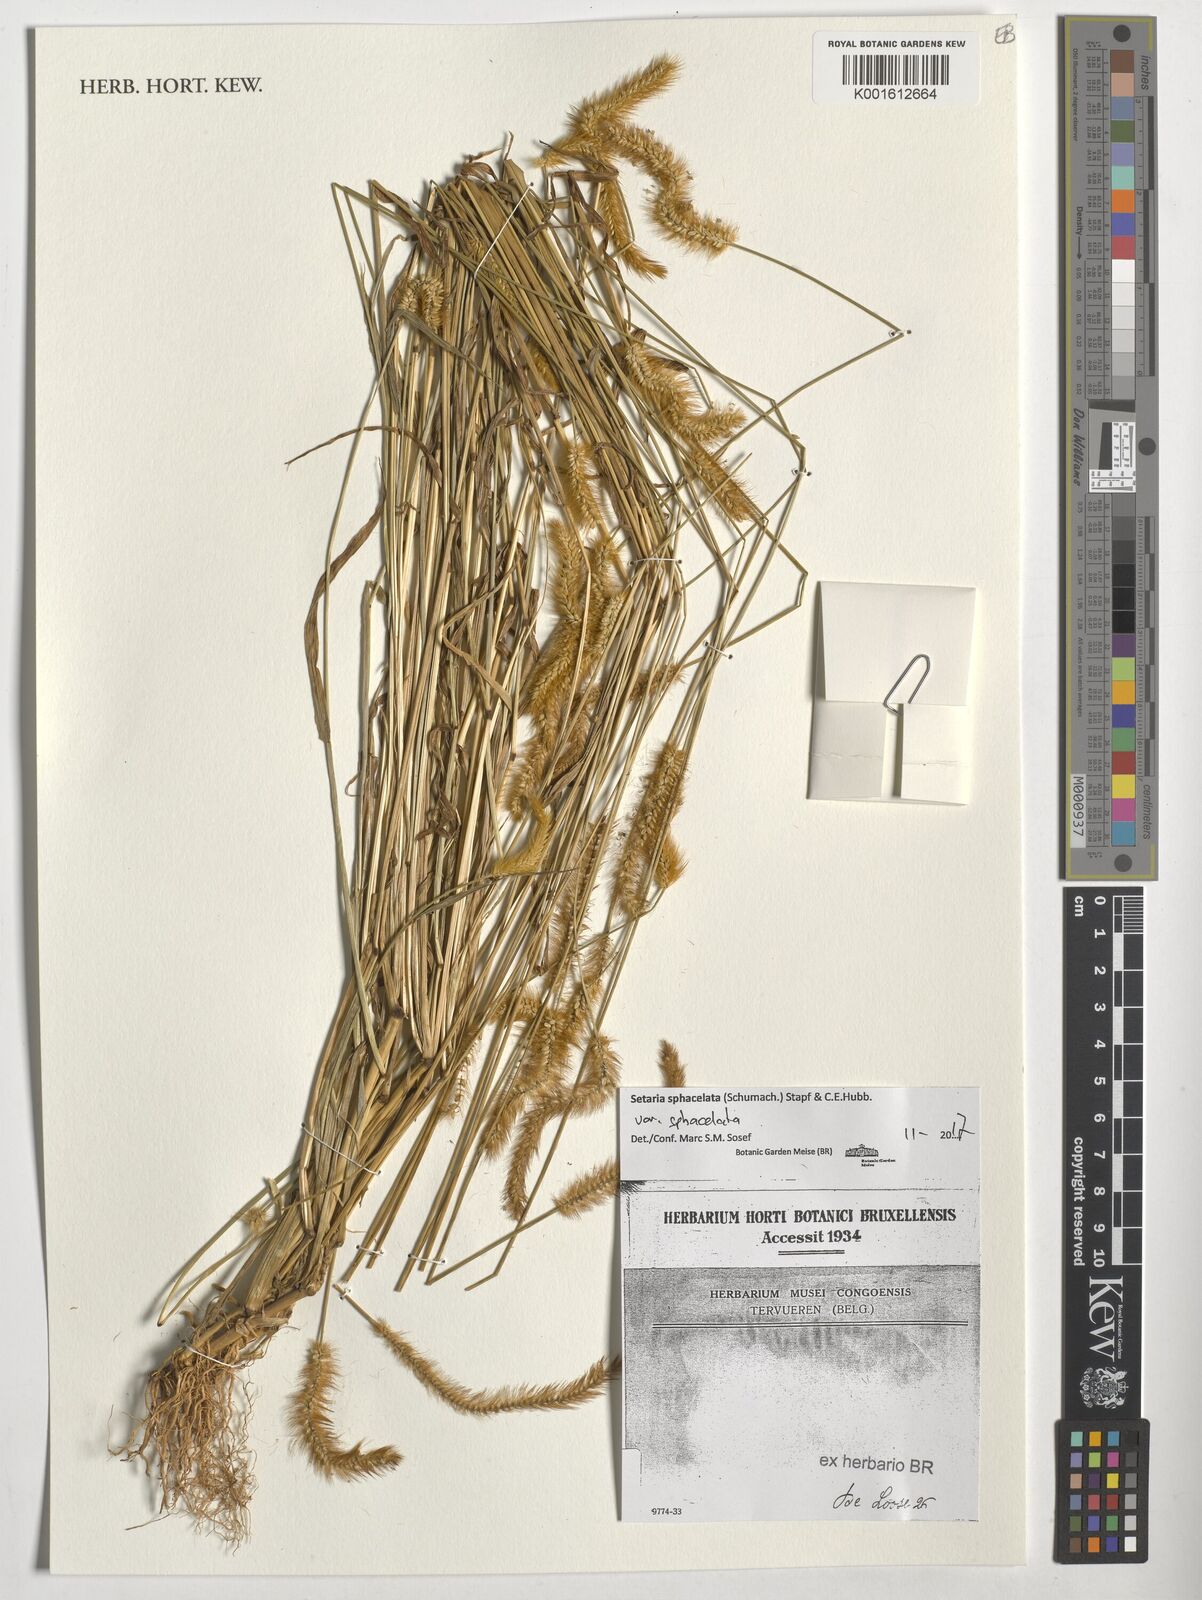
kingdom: Plantae
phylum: Tracheophyta
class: Liliopsida
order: Poales
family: Poaceae
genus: Setaria
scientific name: Setaria sphacelata
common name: African bristlegrass
